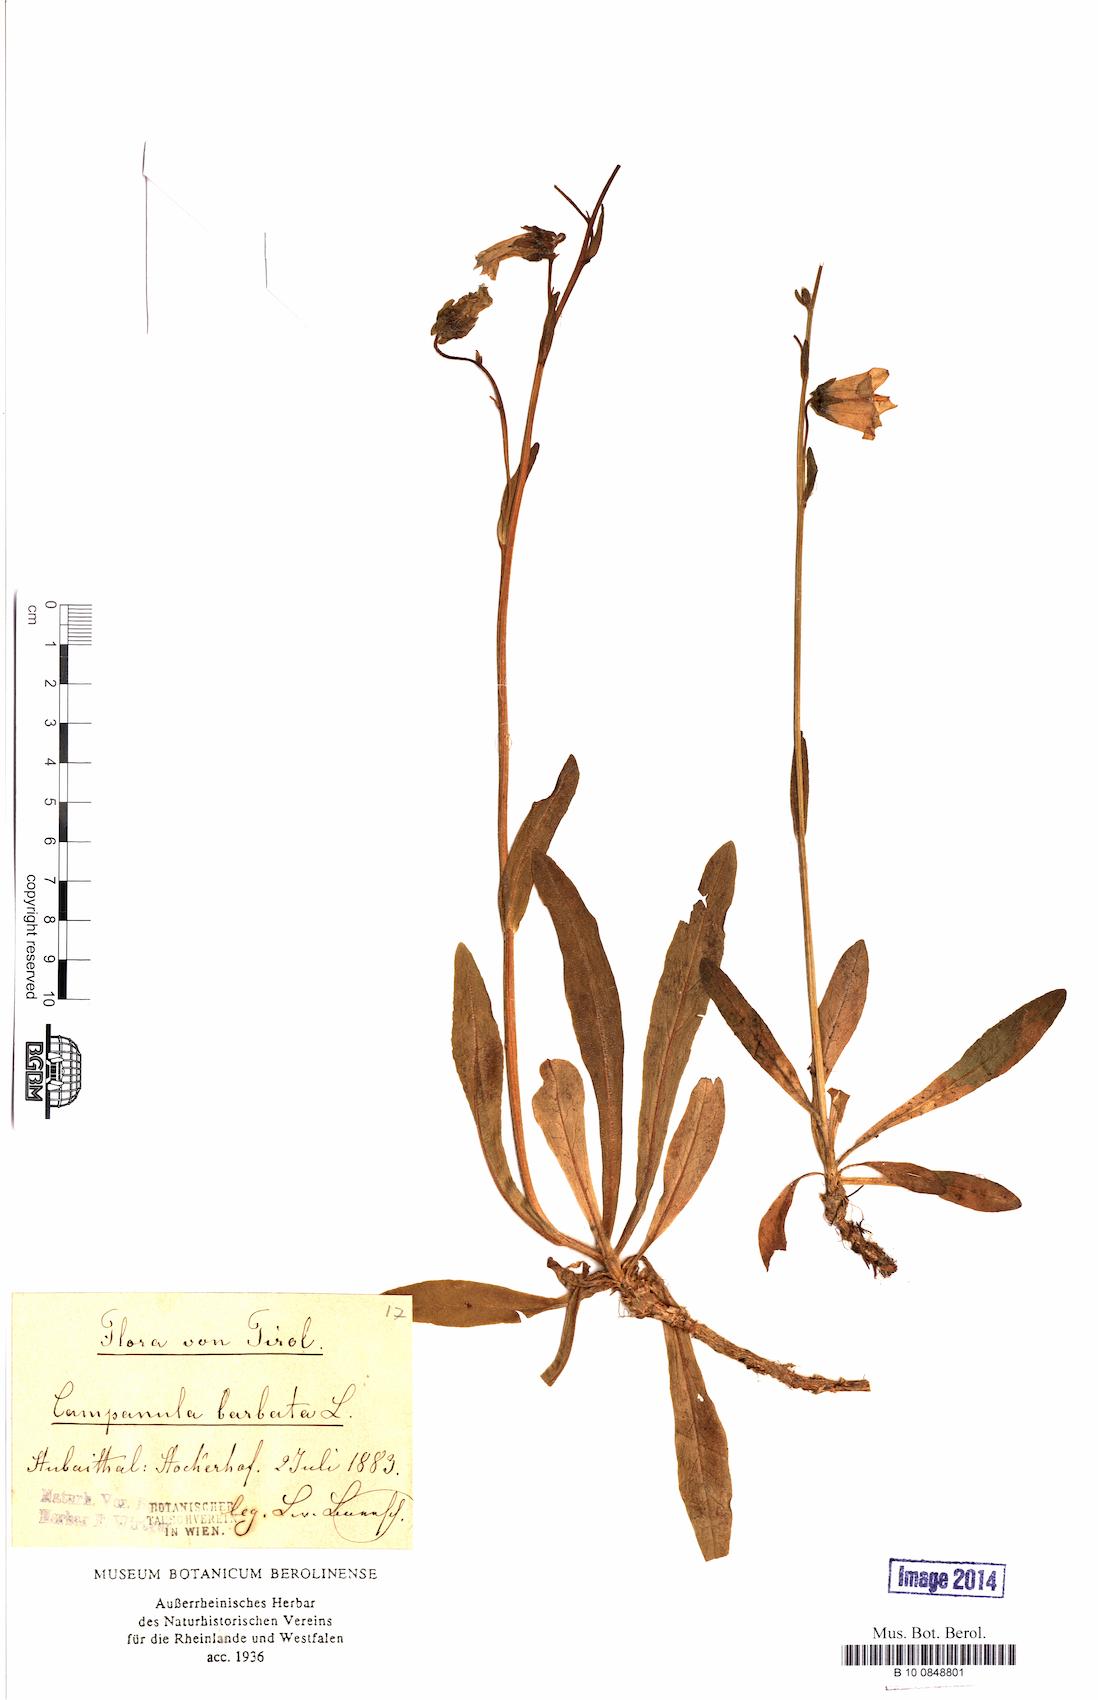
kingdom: Plantae
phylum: Tracheophyta
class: Magnoliopsida
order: Asterales
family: Campanulaceae
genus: Campanula
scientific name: Campanula barbata
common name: Bearded bellflower
